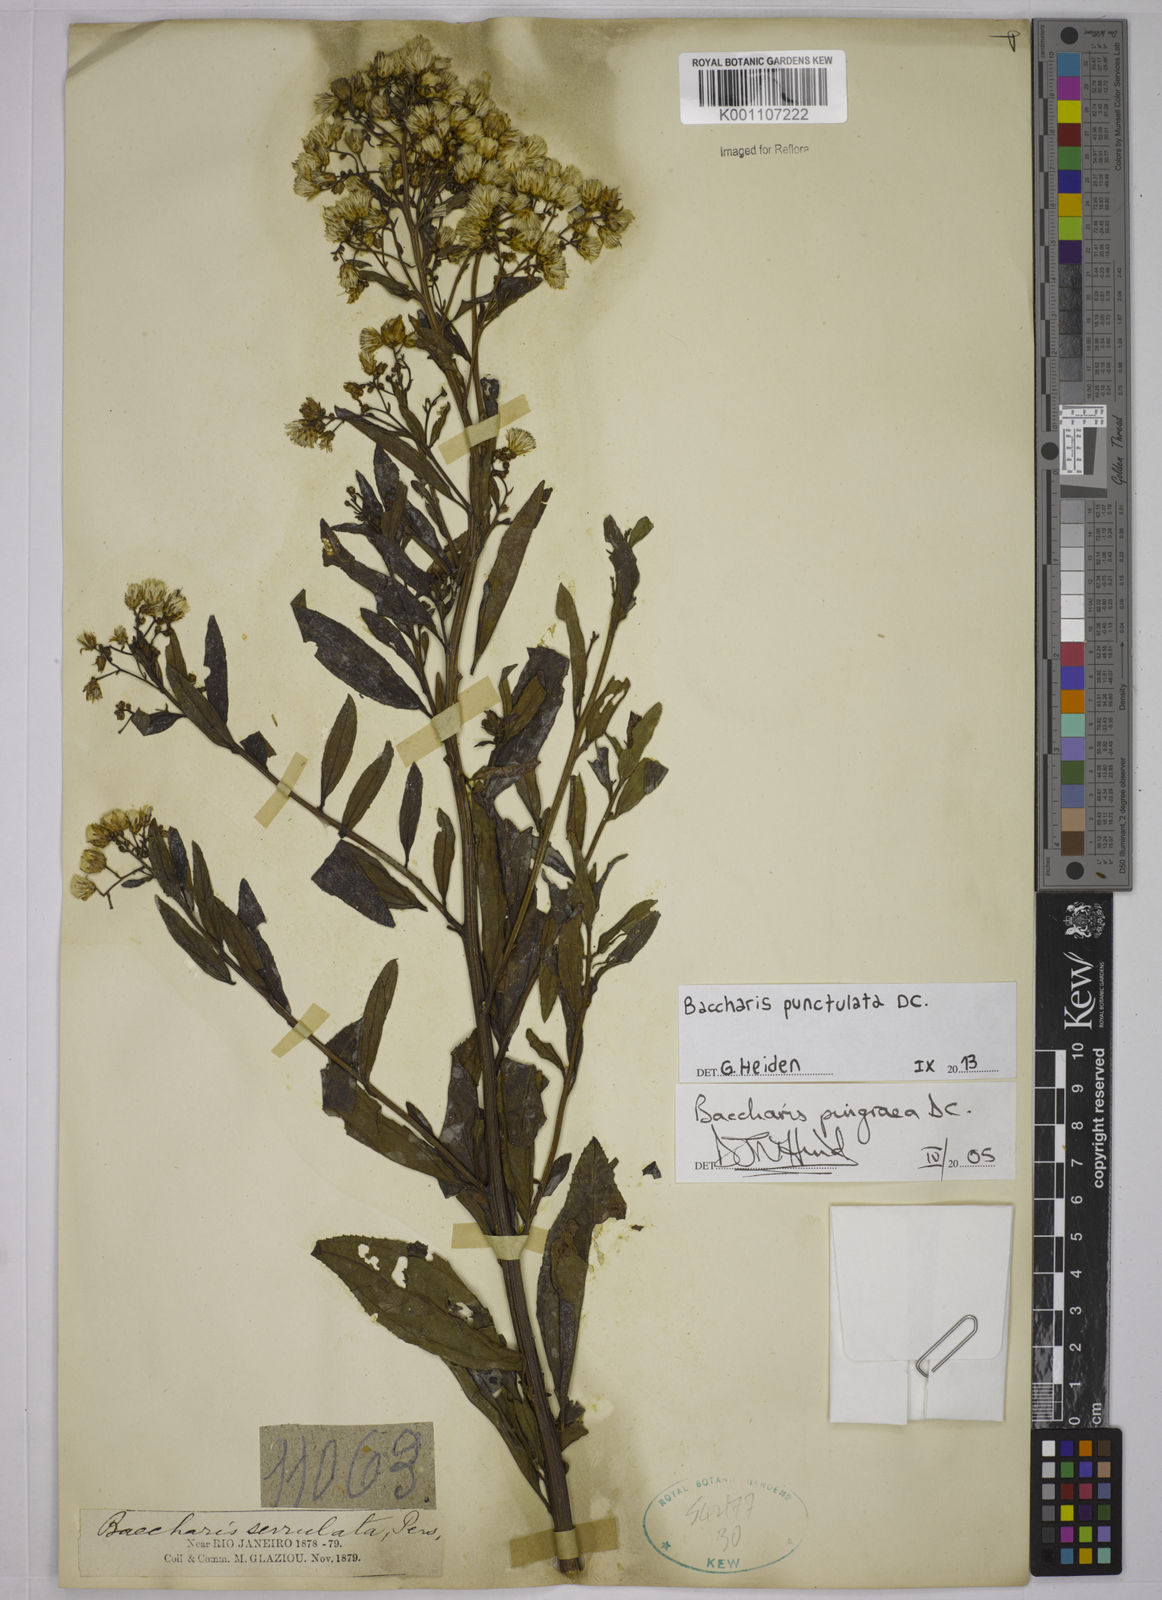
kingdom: Plantae
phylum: Tracheophyta
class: Magnoliopsida
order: Asterales
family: Asteraceae
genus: Baccharis
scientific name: Baccharis punctulata
